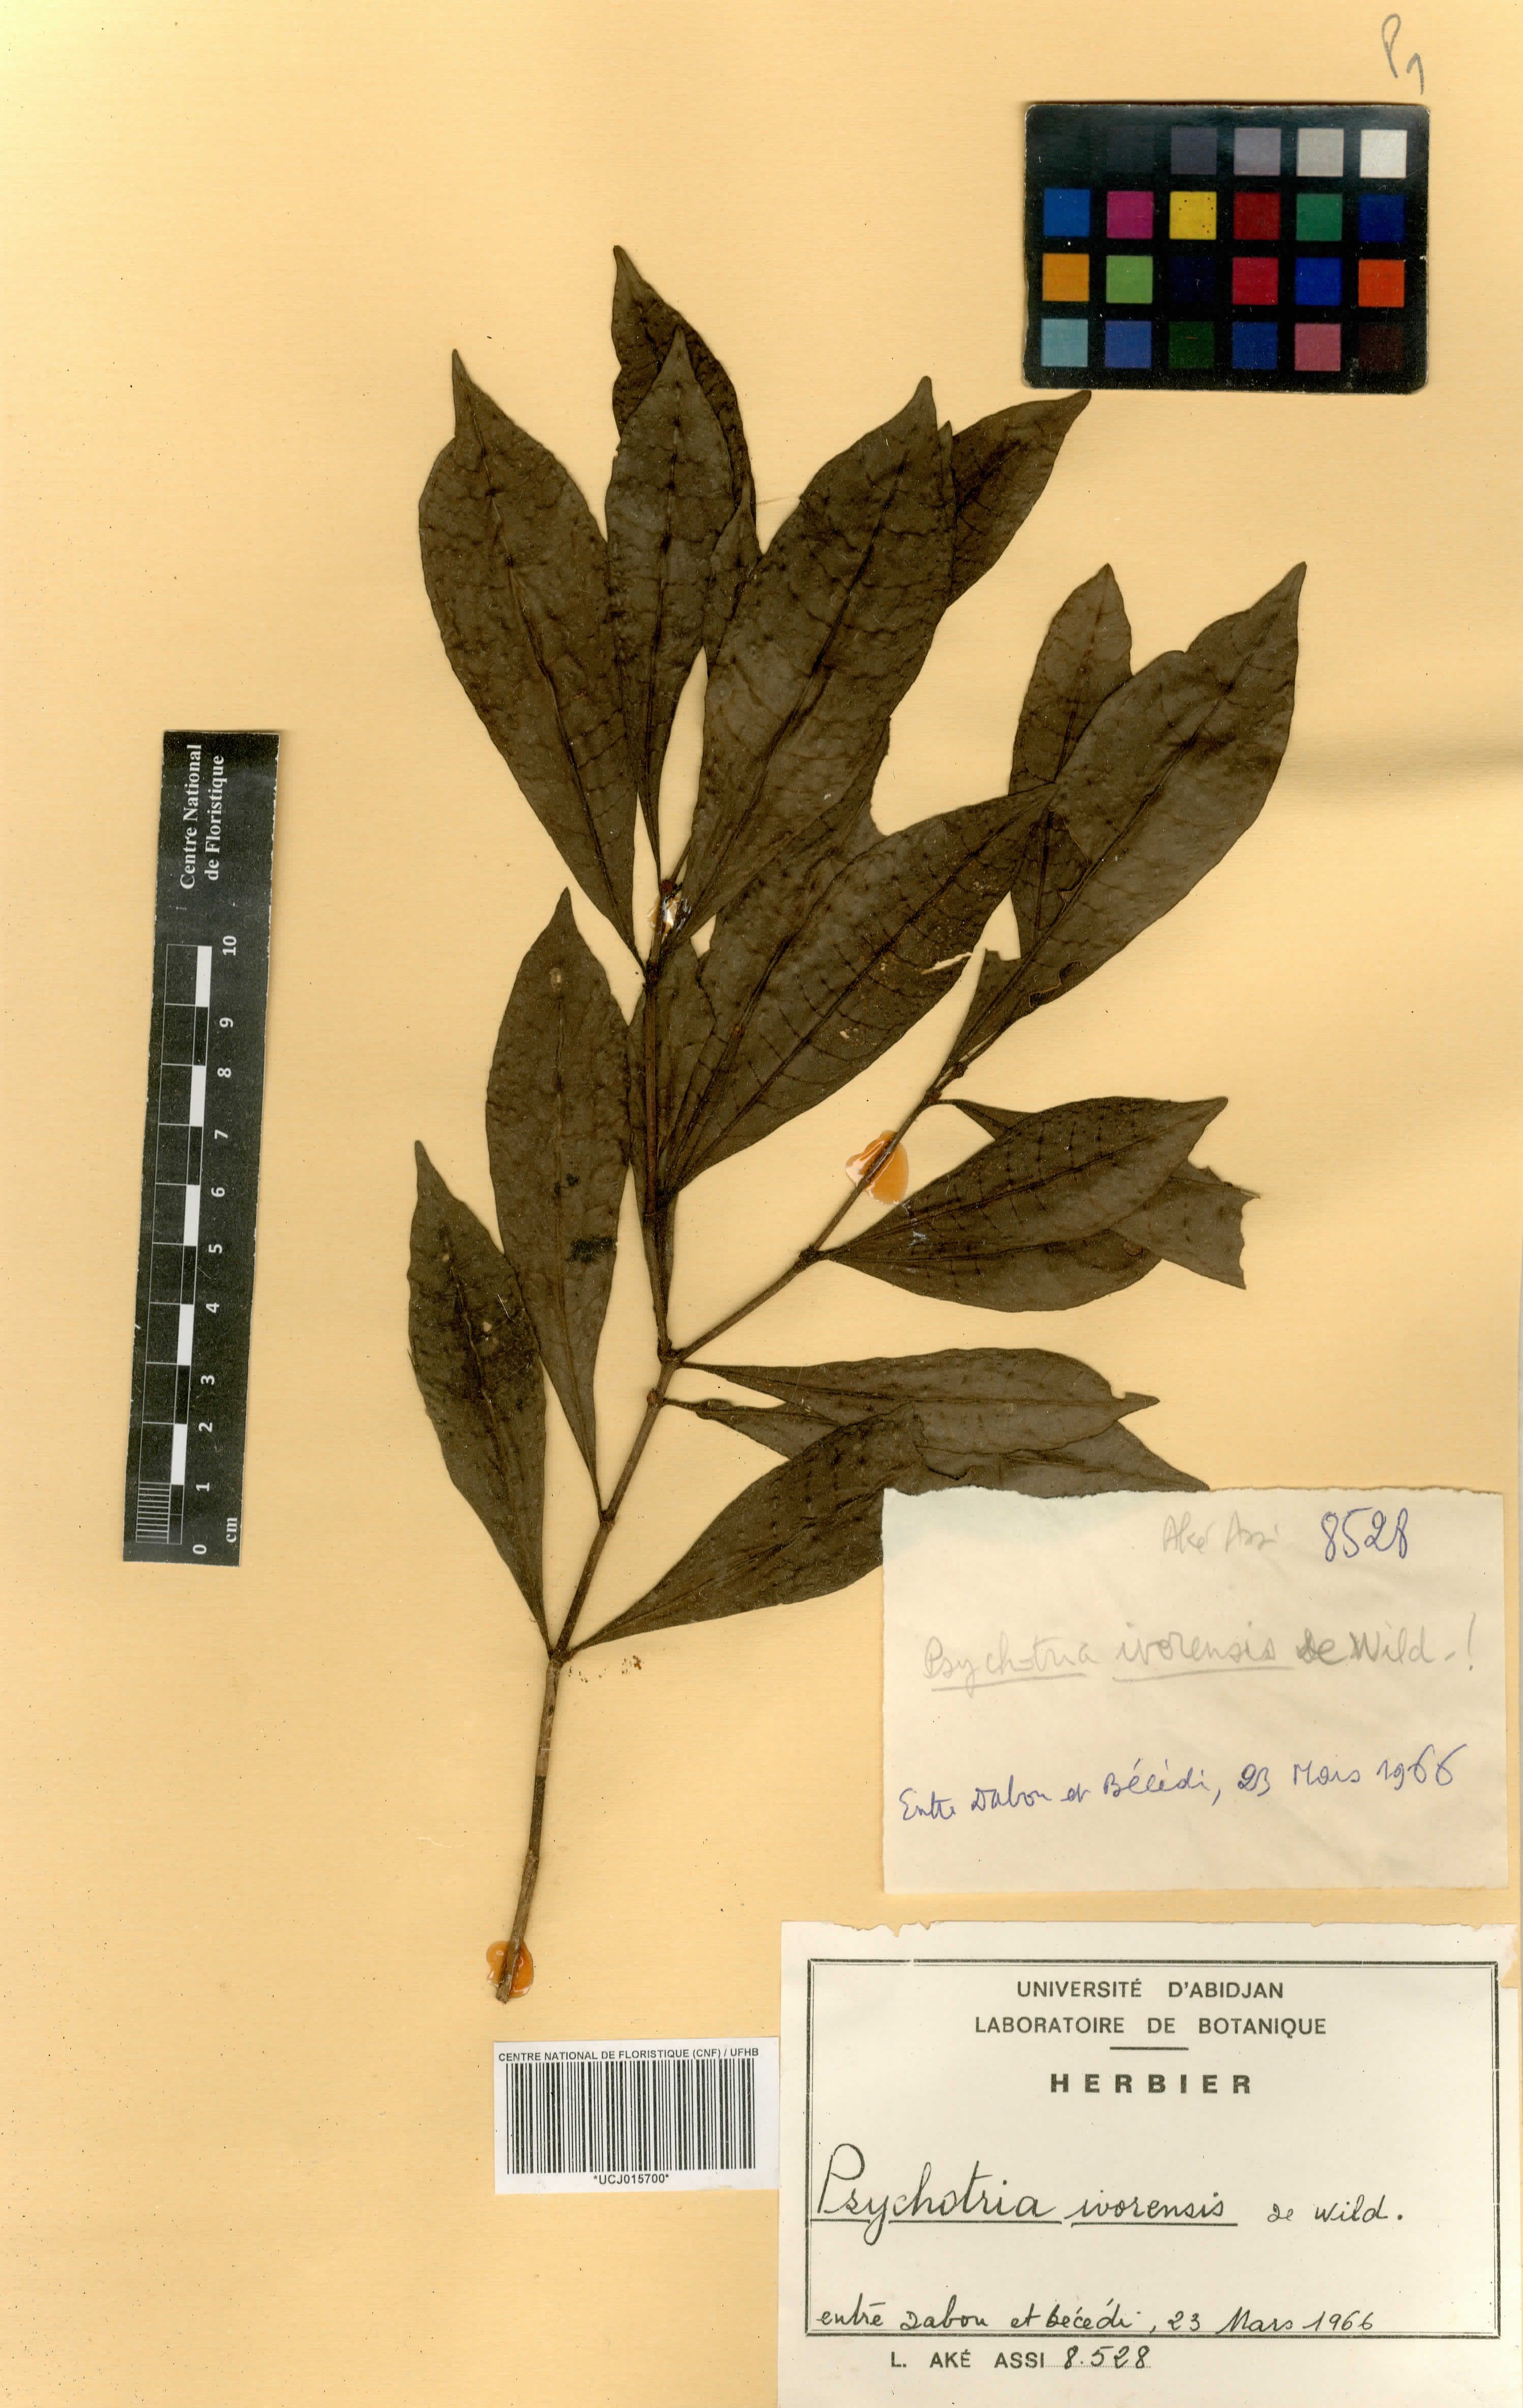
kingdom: Plantae
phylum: Tracheophyta
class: Magnoliopsida
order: Gentianales
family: Rubiaceae
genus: Psychotria
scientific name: Psychotria adafoana
